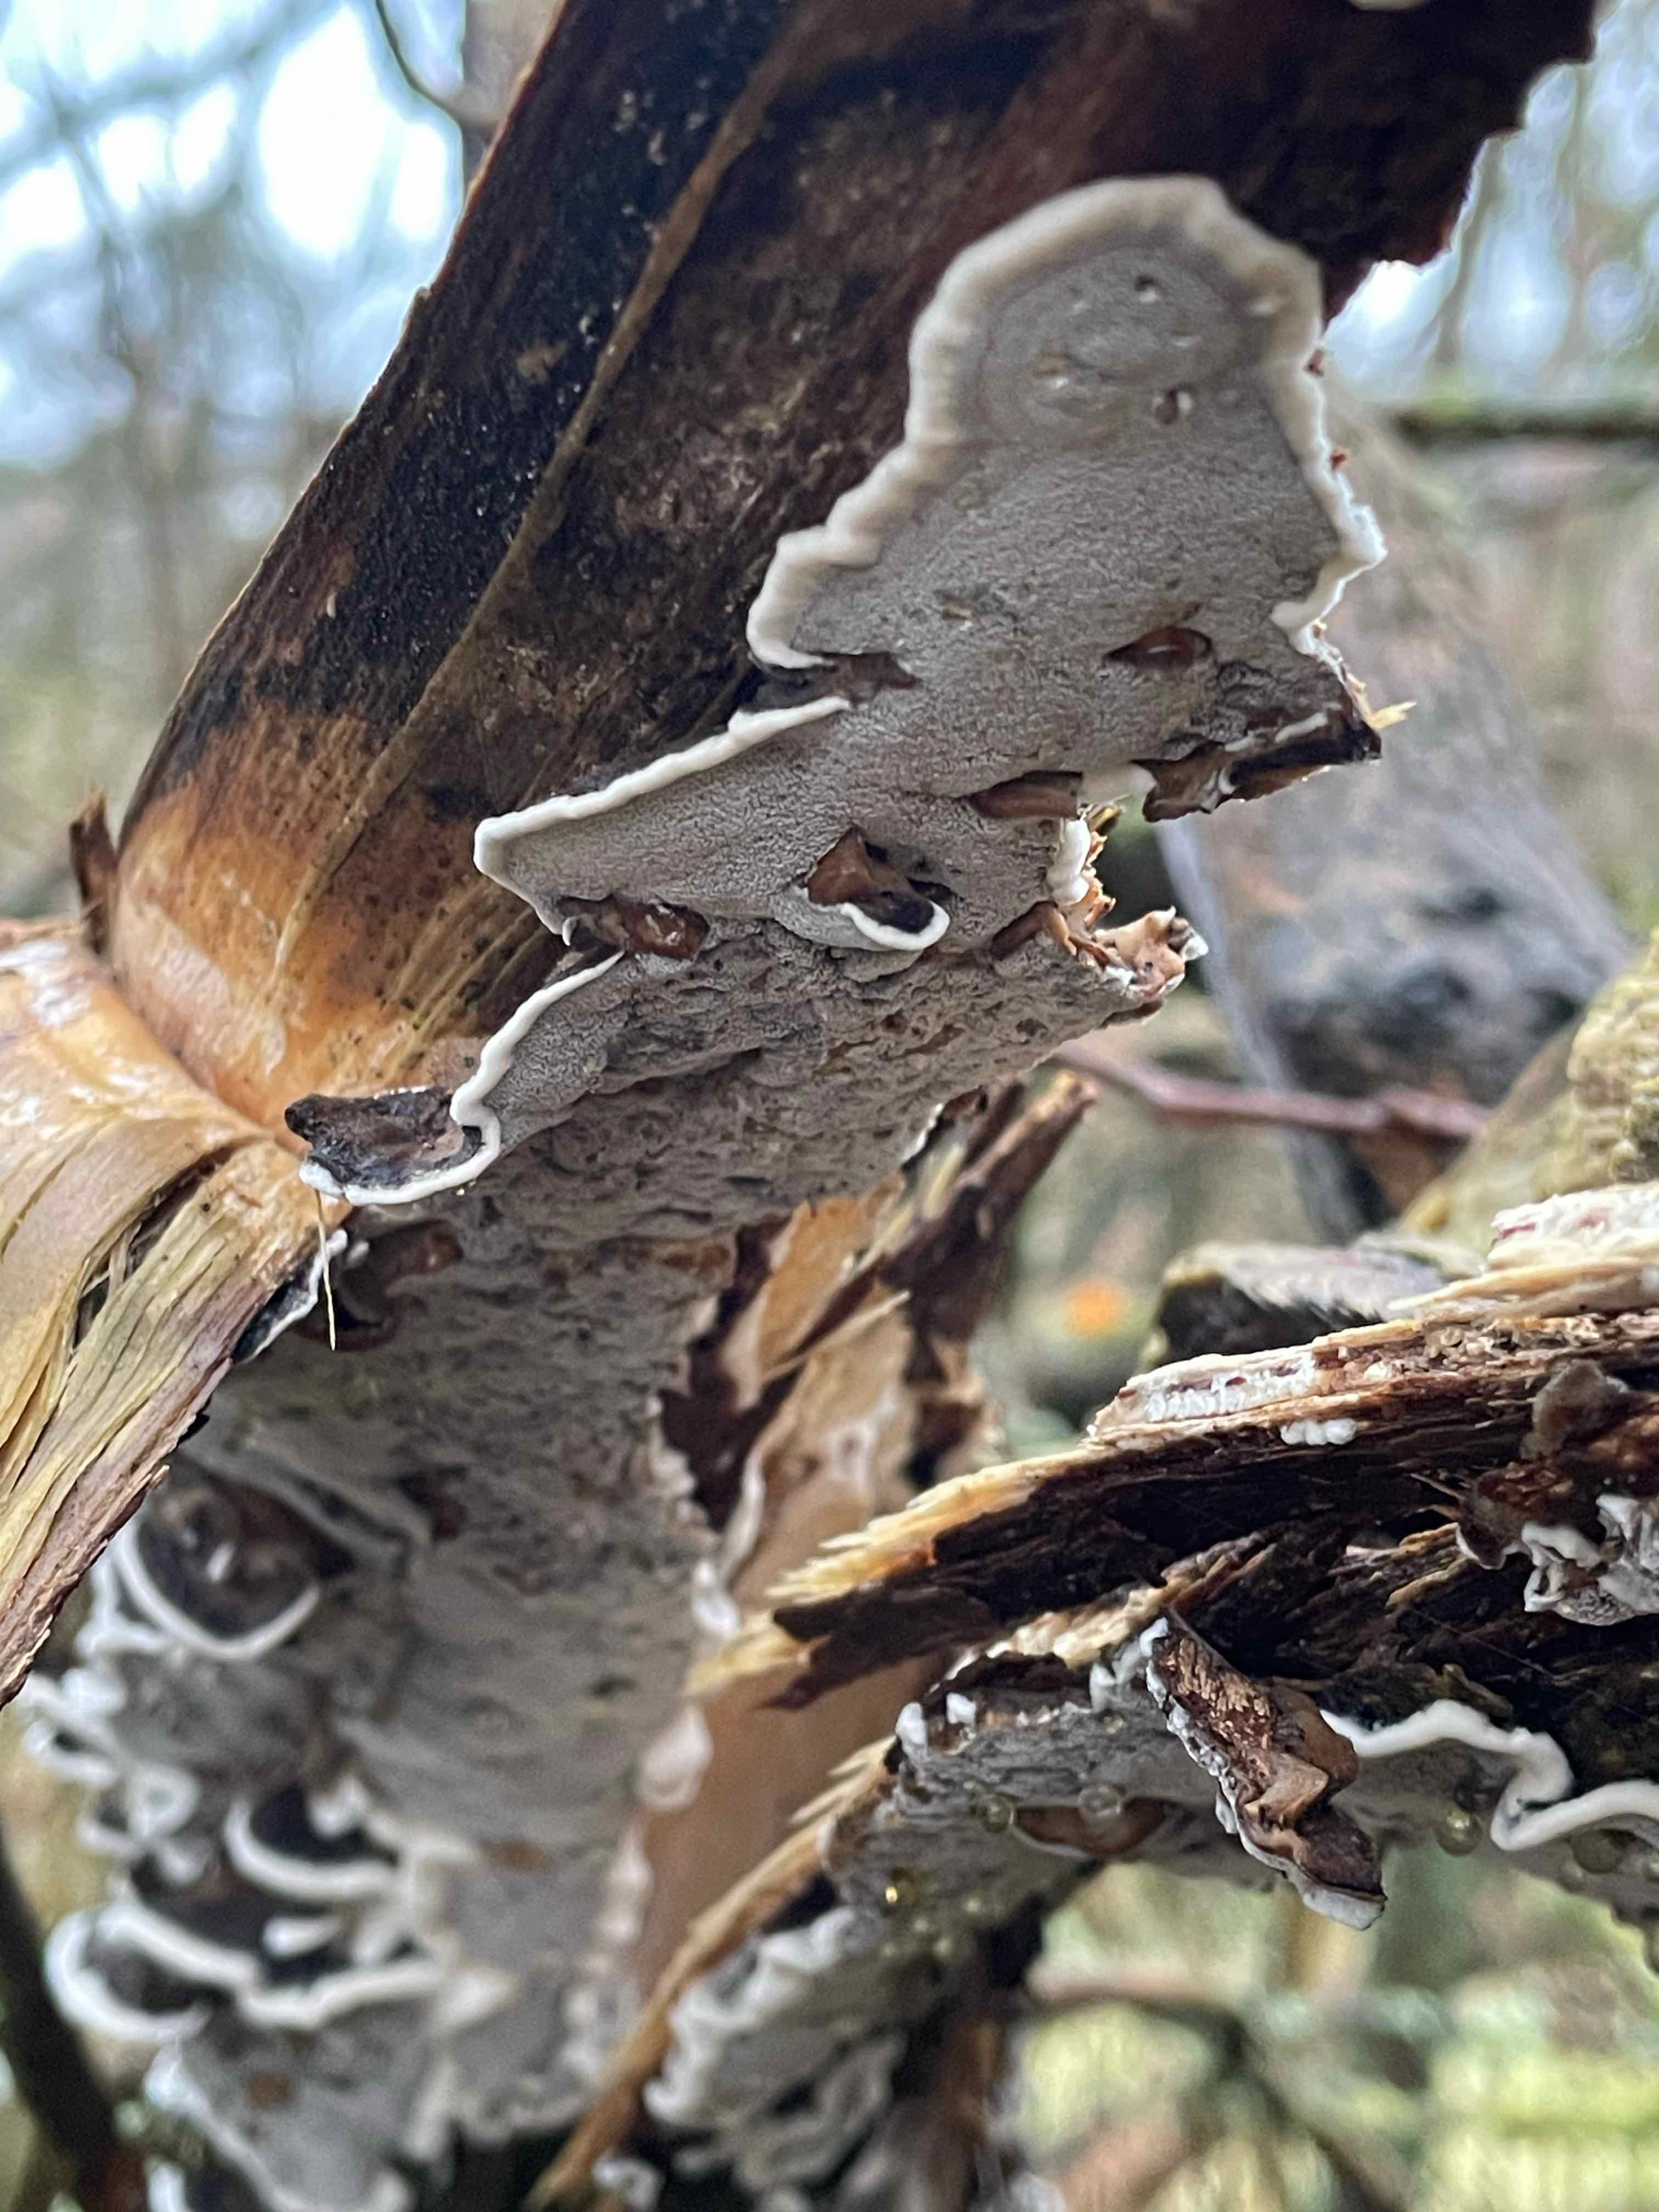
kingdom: Fungi
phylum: Basidiomycota
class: Agaricomycetes
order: Polyporales
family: Phanerochaetaceae
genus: Bjerkandera
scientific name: Bjerkandera adusta
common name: sveden sodporesvamp
